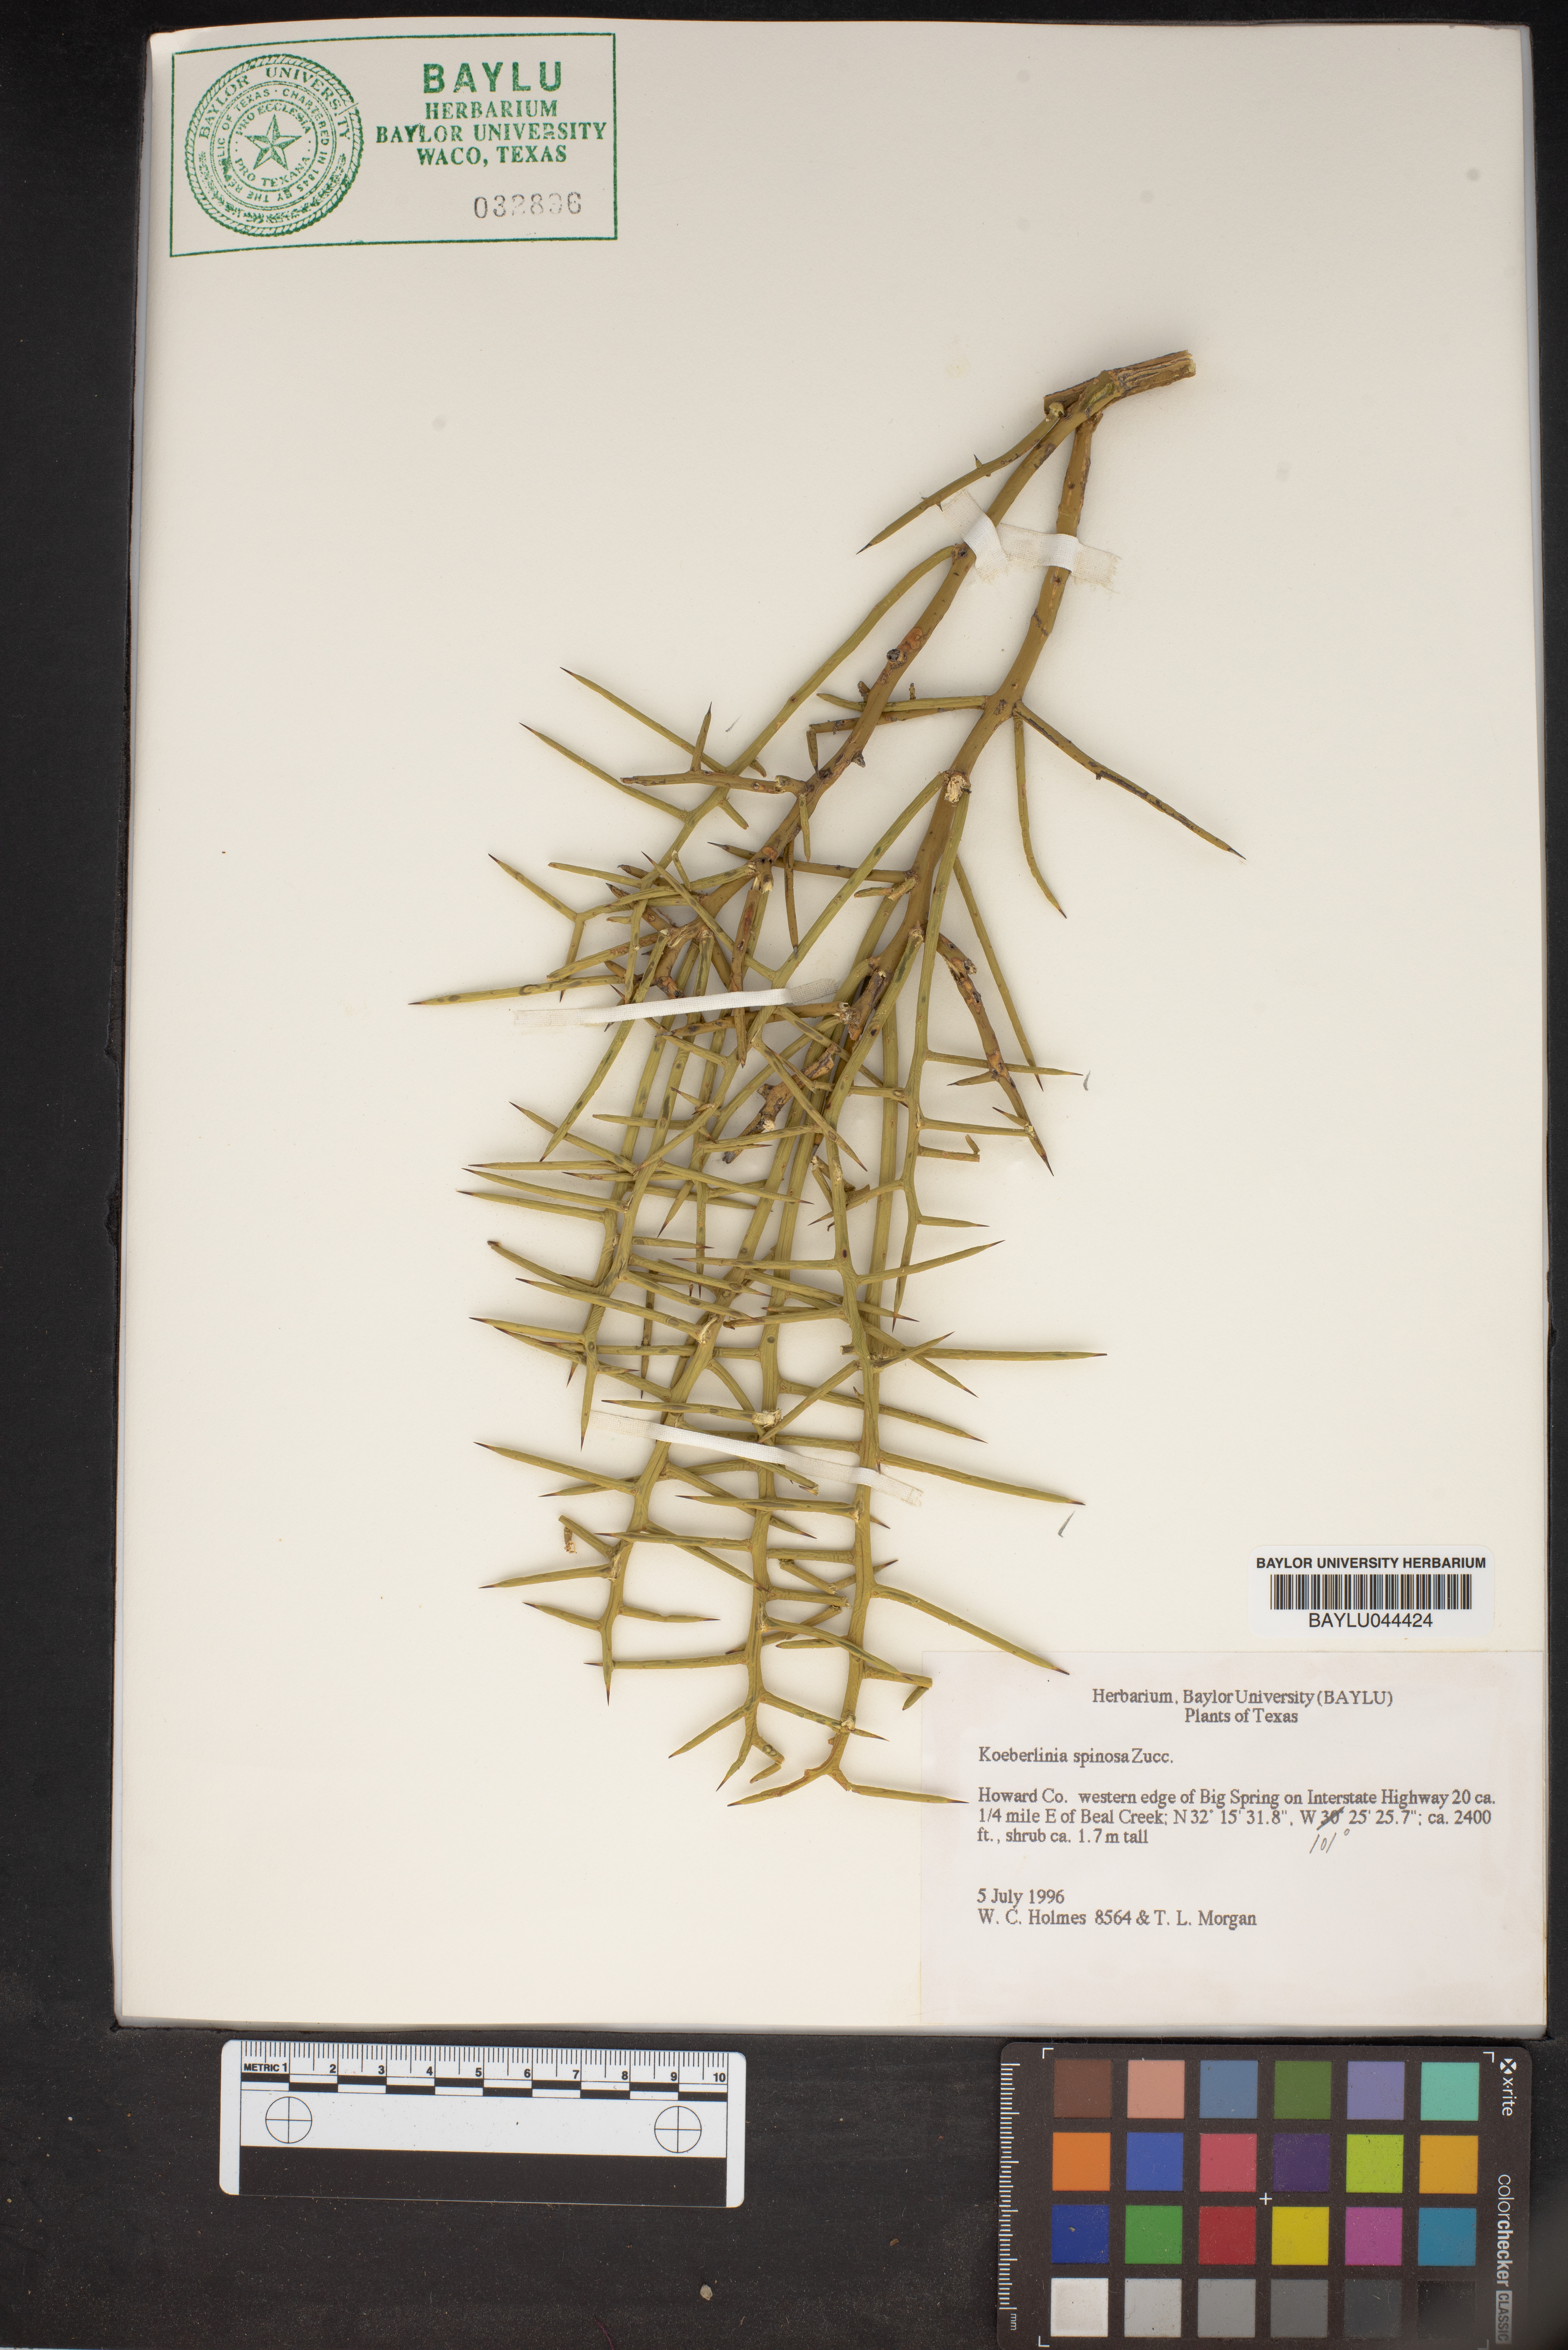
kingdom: Plantae
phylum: Tracheophyta
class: Magnoliopsida
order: Brassicales
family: Koeberliniaceae
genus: Koeberlinia
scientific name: Koeberlinia spinosa
